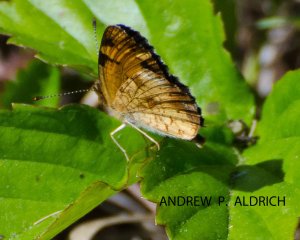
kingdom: Animalia
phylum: Arthropoda
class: Insecta
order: Lepidoptera
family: Nymphalidae
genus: Phyciodes
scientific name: Phyciodes tharos
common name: Pearl Crescent
